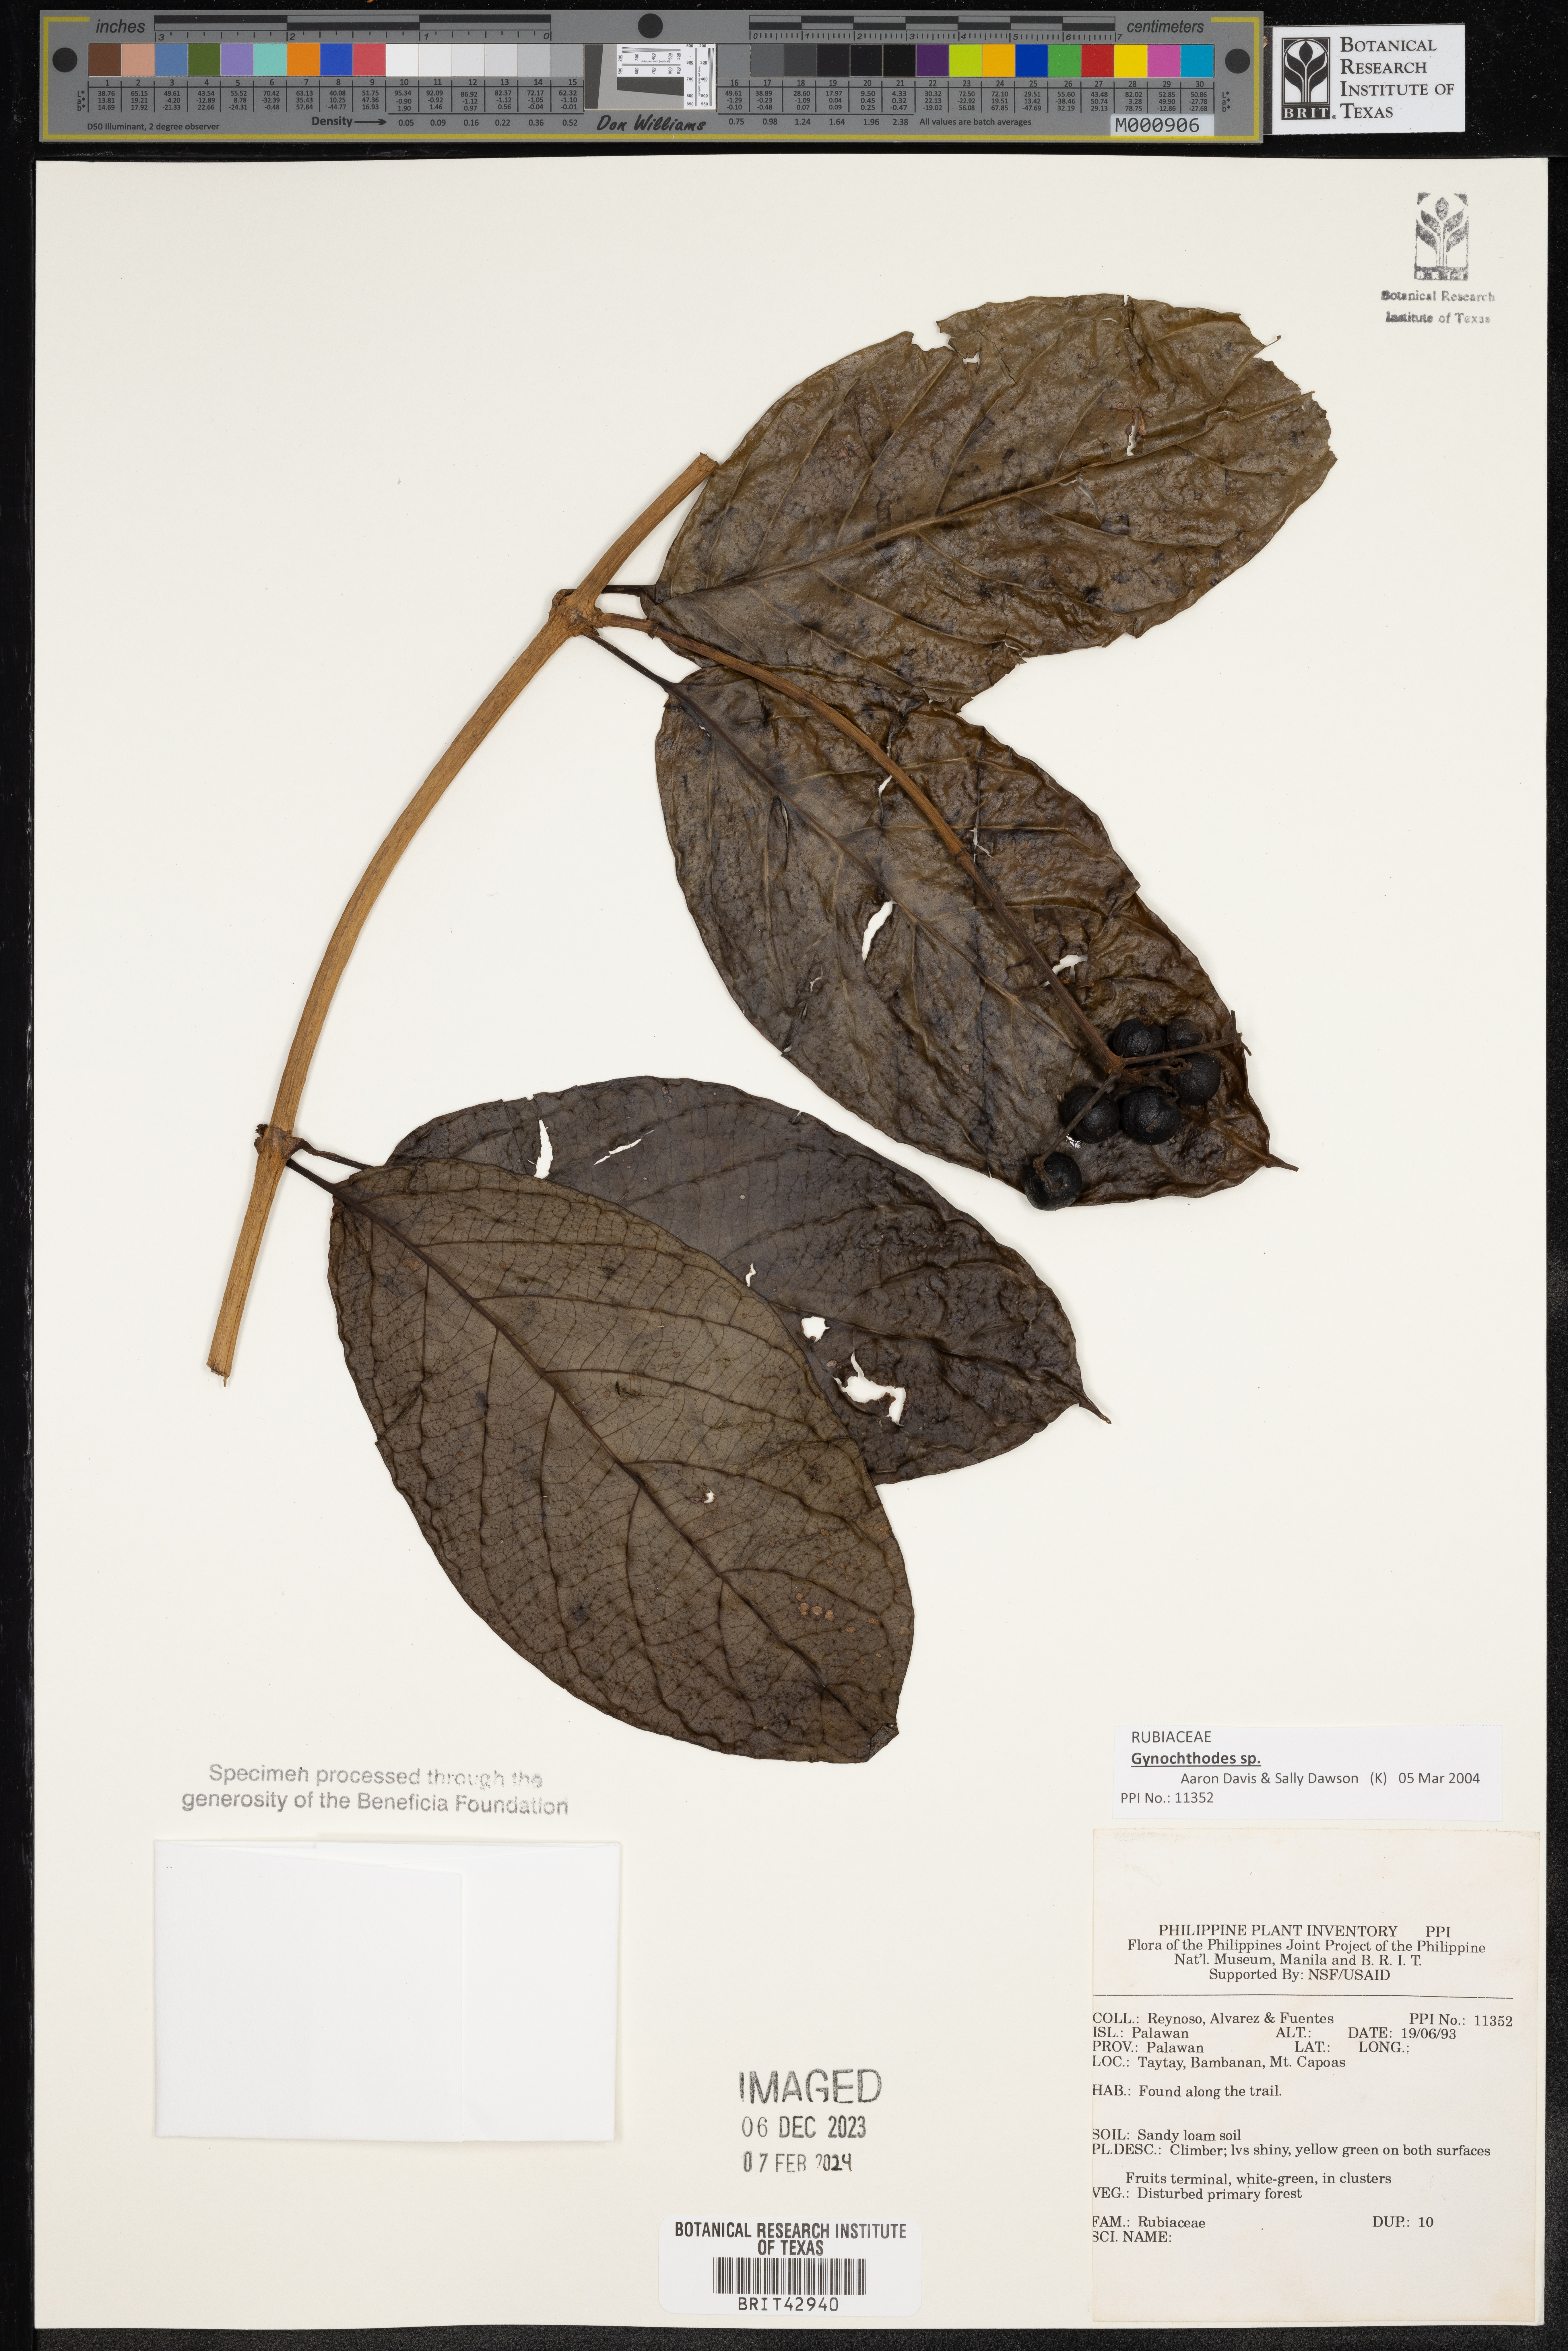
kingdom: Plantae
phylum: Tracheophyta
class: Magnoliopsida
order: Gentianales
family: Rubiaceae
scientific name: Rubiaceae
